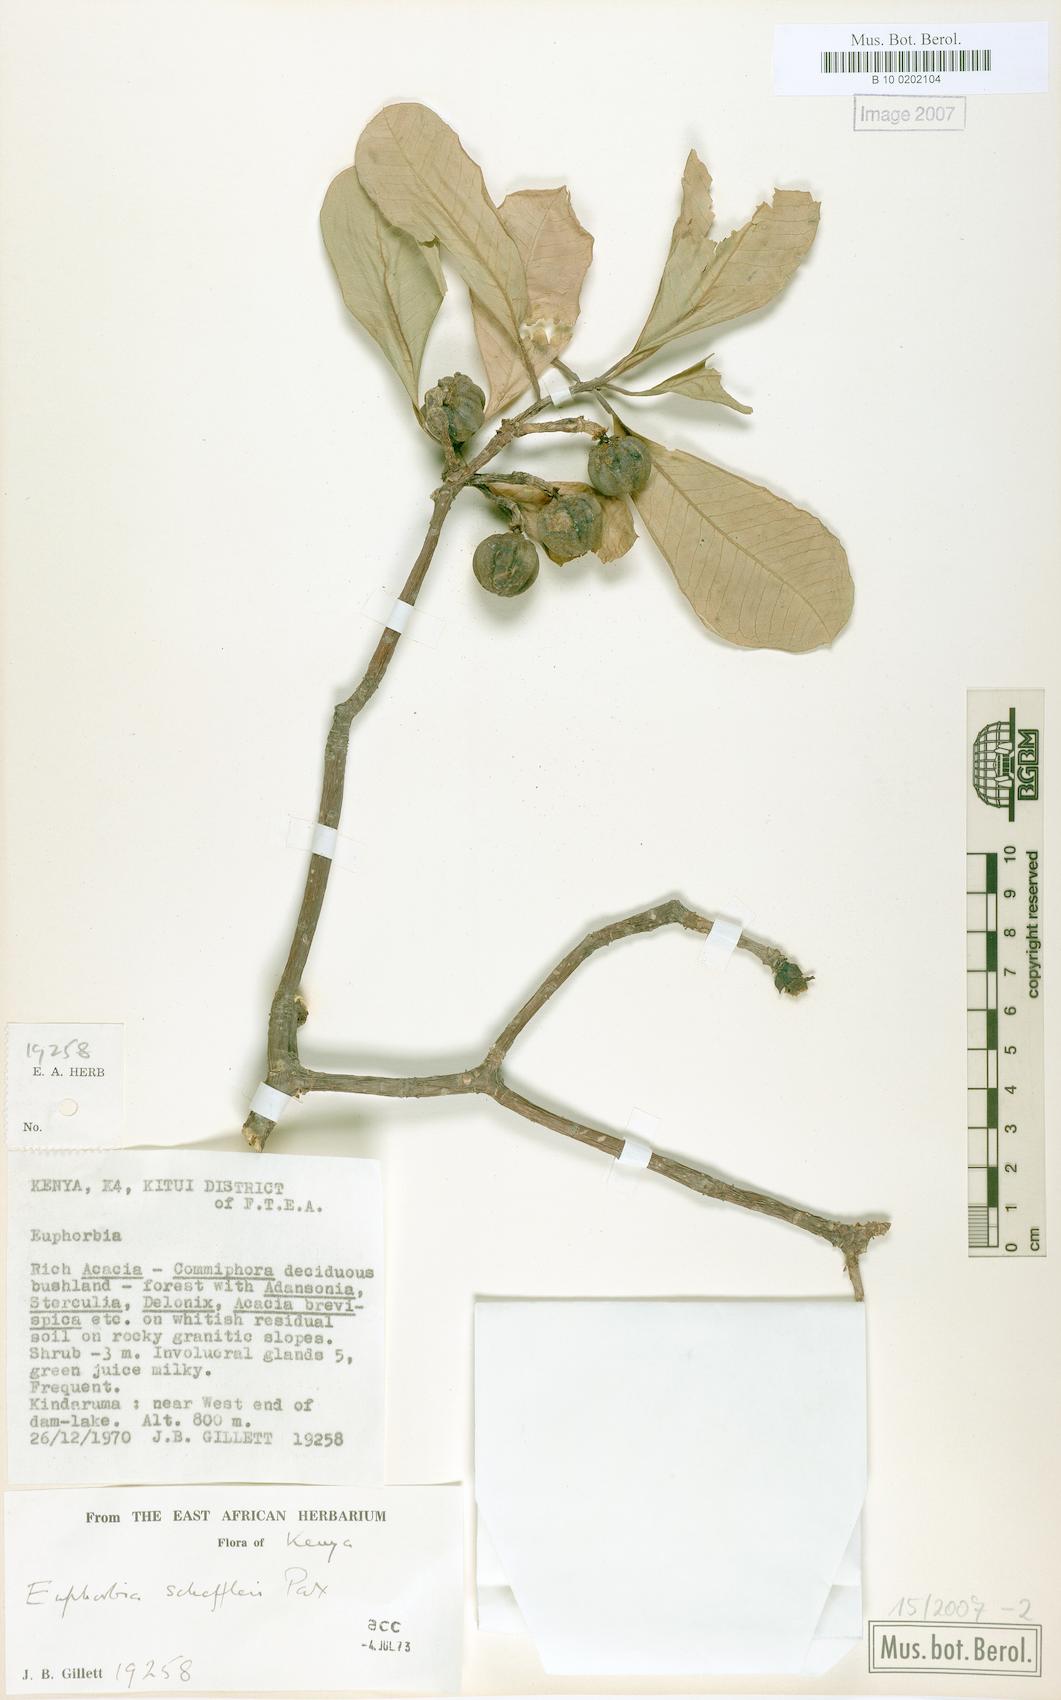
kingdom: Plantae
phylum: Tracheophyta
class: Magnoliopsida
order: Malpighiales
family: Euphorbiaceae
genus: Euphorbia
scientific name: Euphorbia scheffleri
